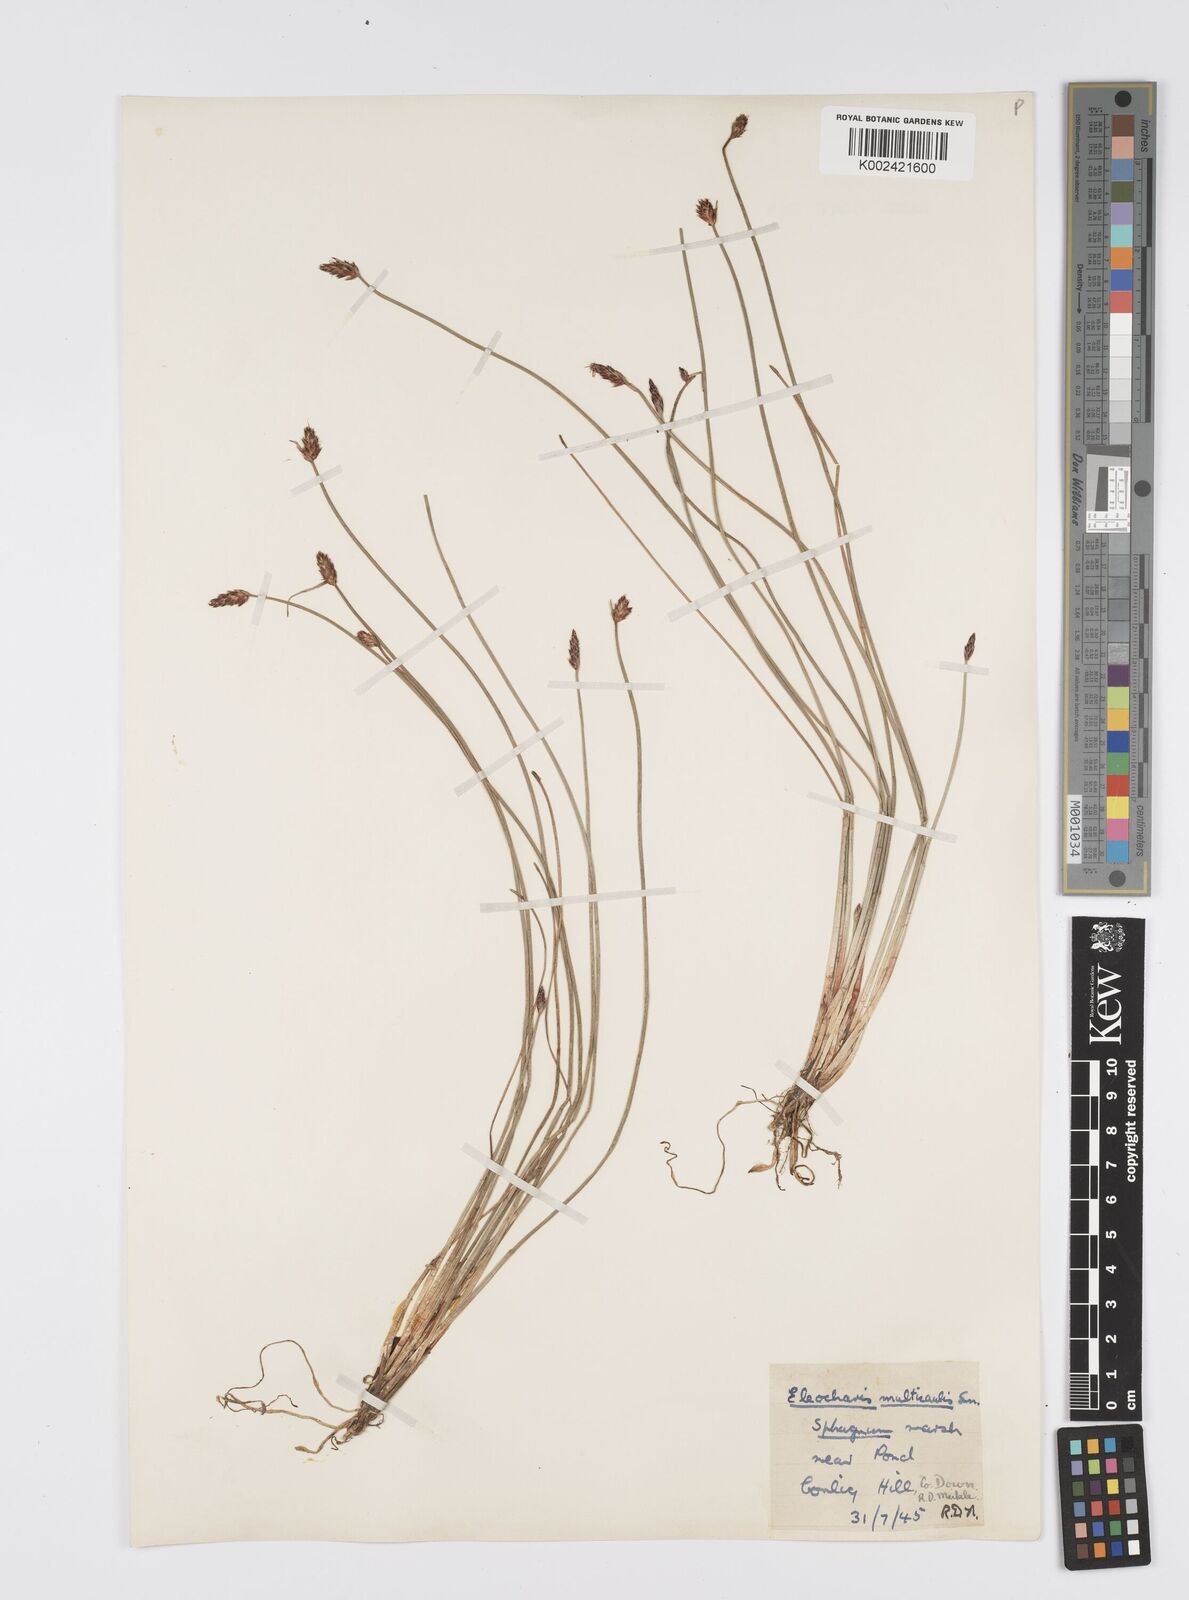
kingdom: Plantae
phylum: Tracheophyta
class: Liliopsida
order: Poales
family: Cyperaceae
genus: Eleocharis
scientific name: Eleocharis multicaulis
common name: Many-stalked spike-rush
